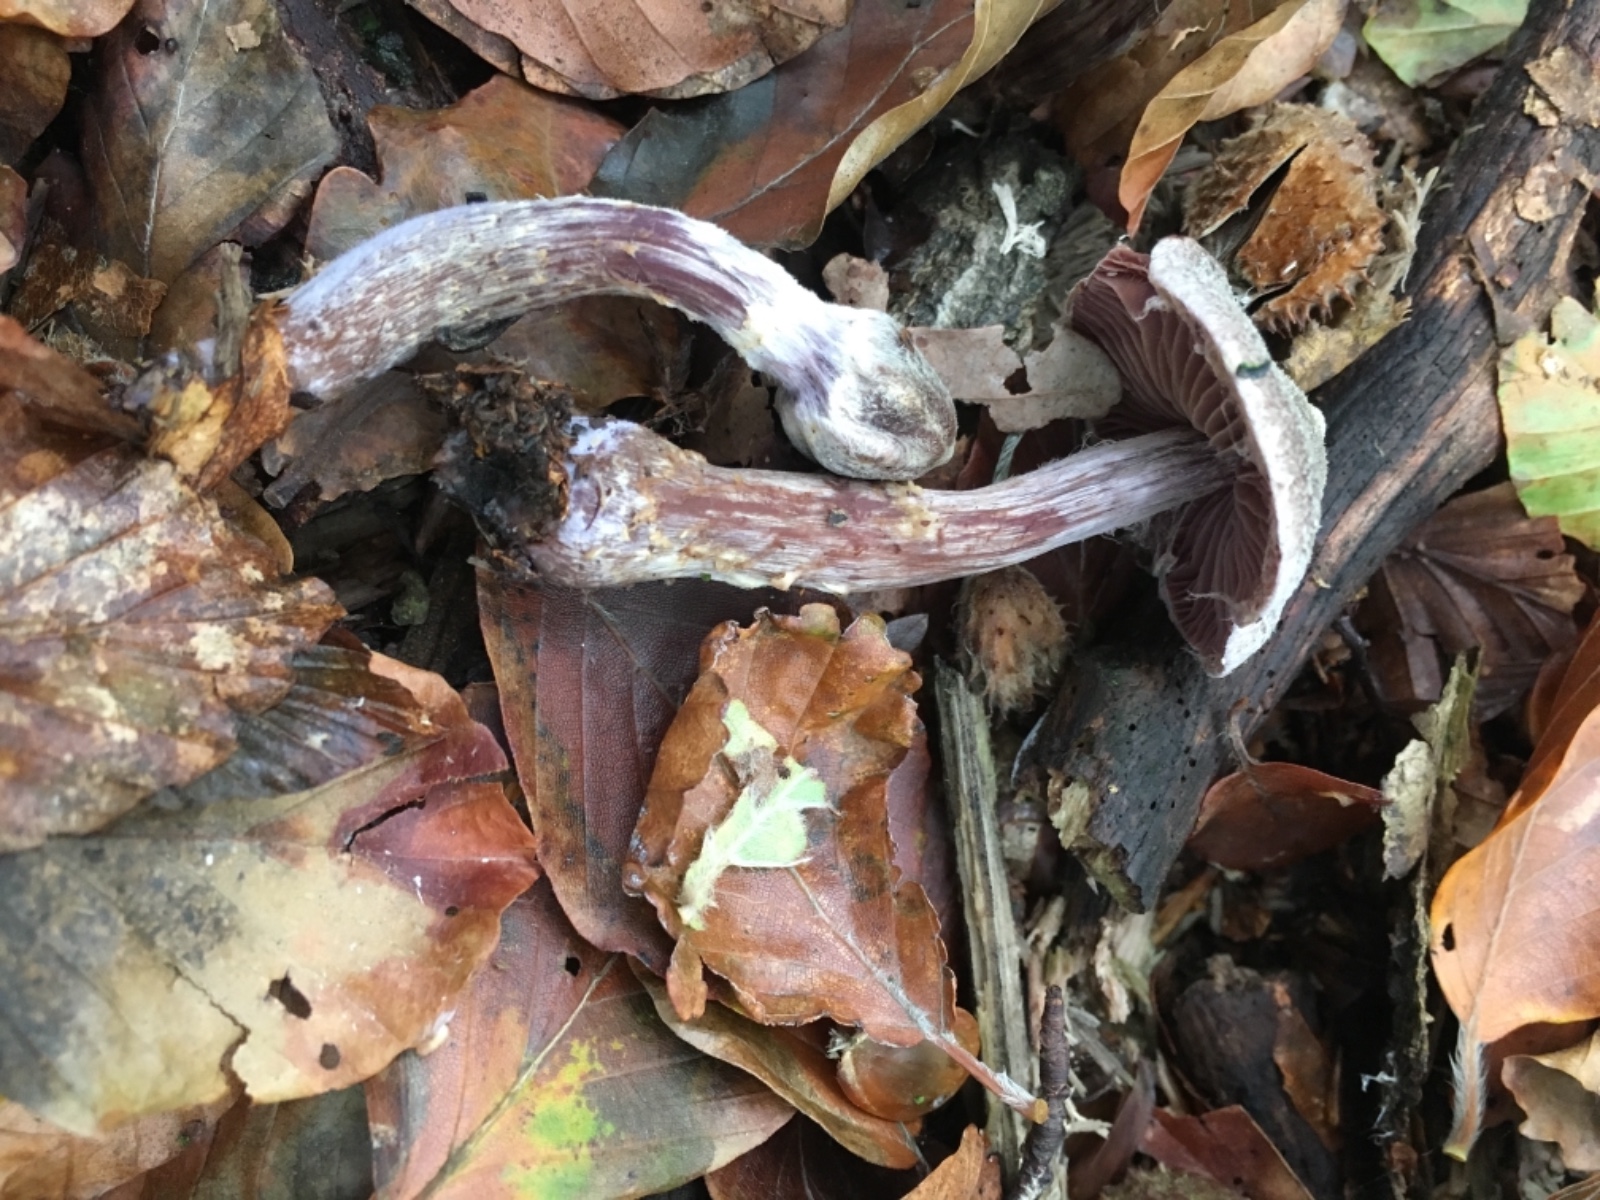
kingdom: Fungi
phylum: Basidiomycota
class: Agaricomycetes
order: Agaricales
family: Cortinariaceae
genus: Cortinarius
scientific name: Cortinarius
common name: pelargonie-slørhat
